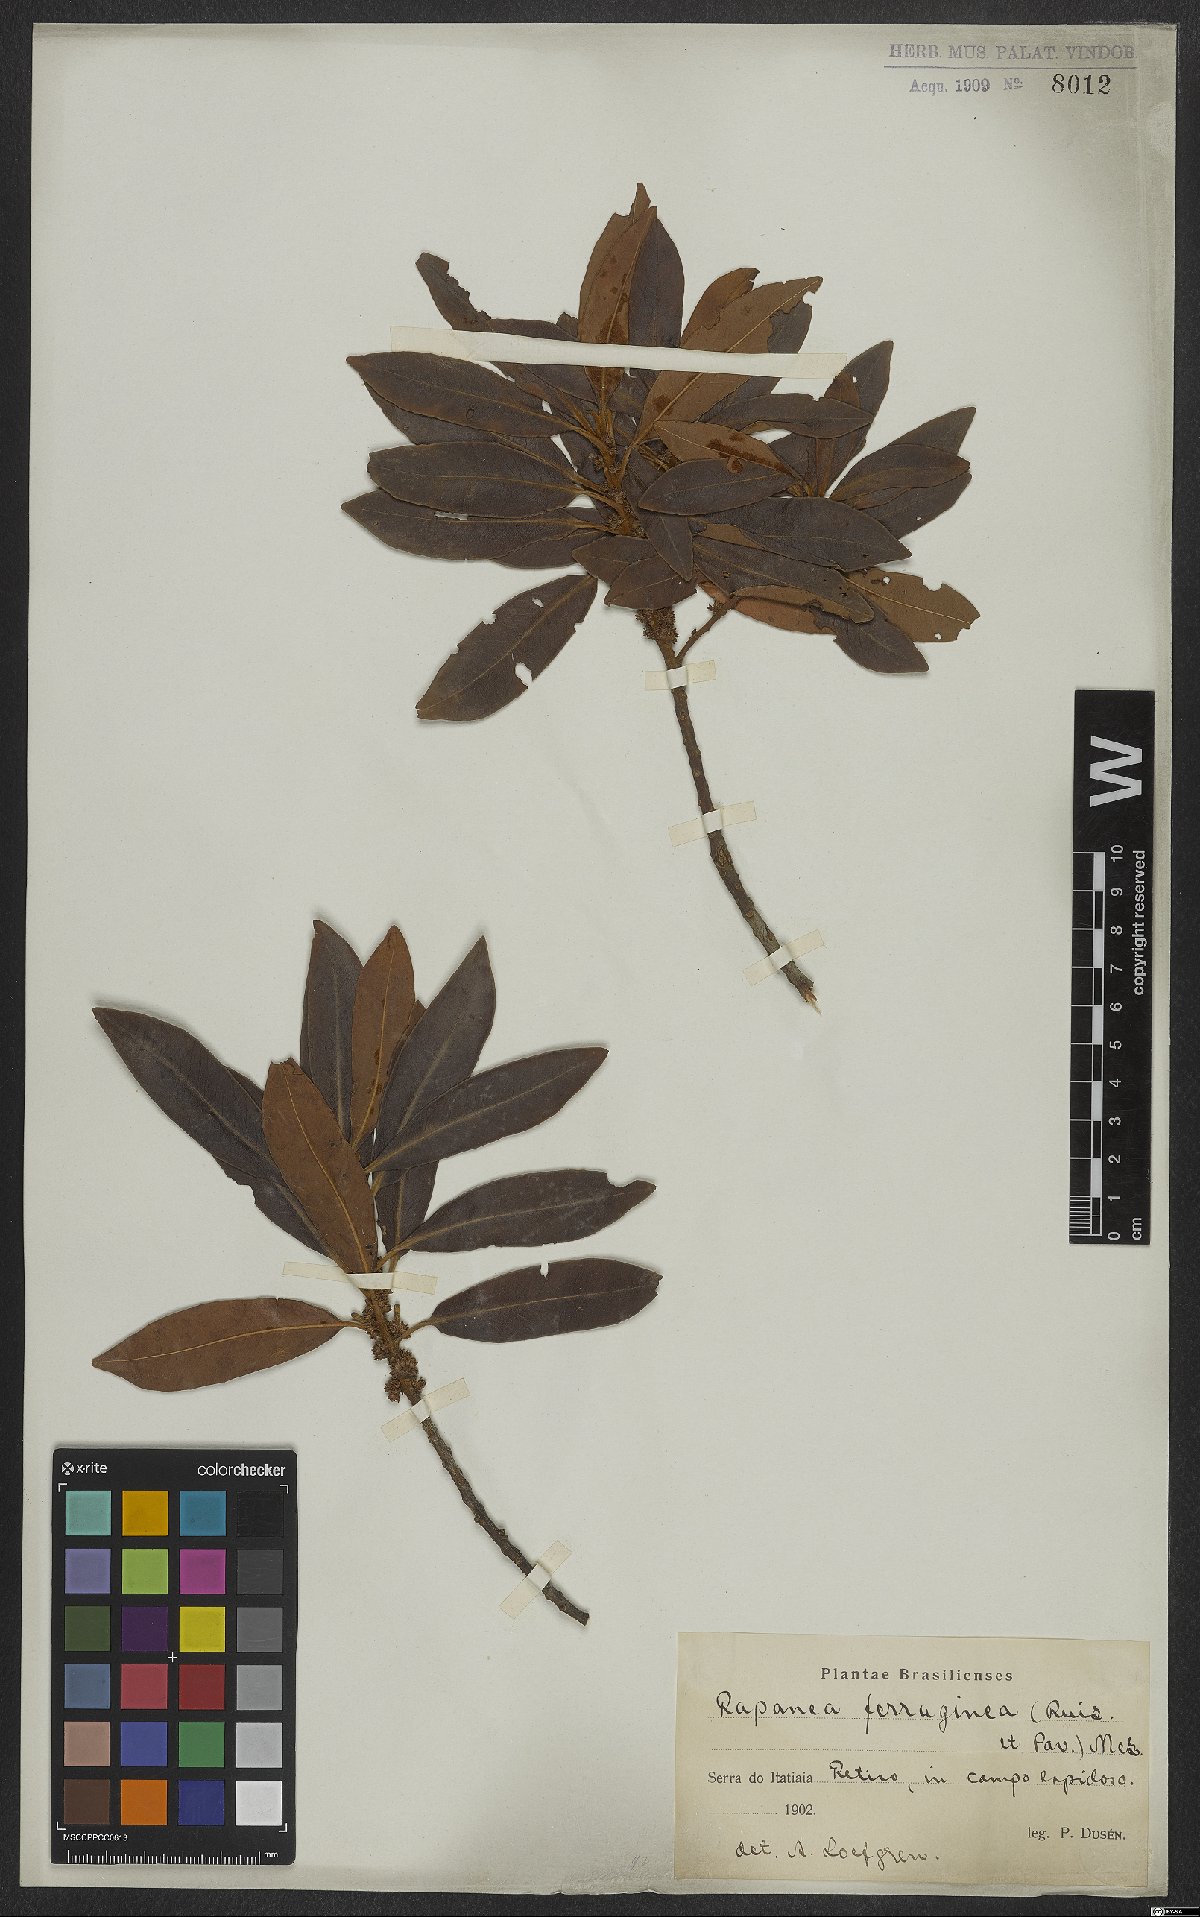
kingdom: Plantae
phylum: Tracheophyta
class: Magnoliopsida
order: Ericales
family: Primulaceae
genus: Myrsine
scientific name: Myrsine coriacea
